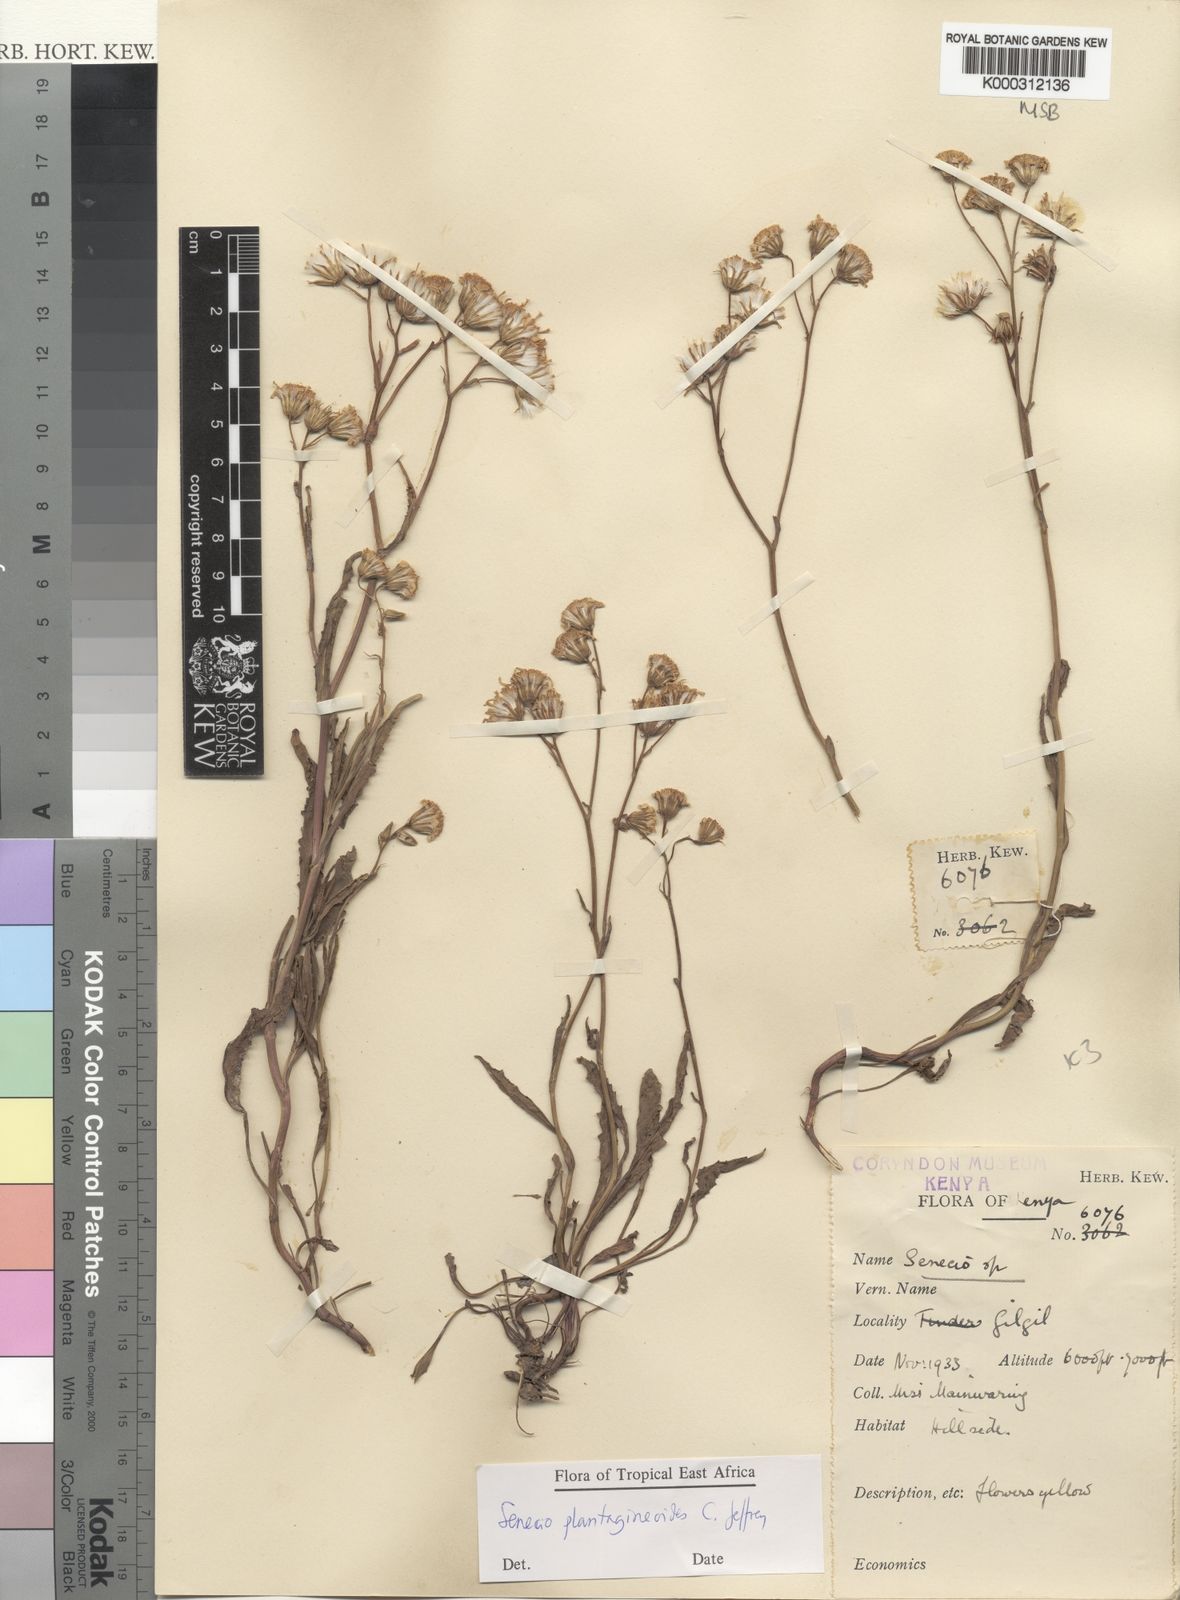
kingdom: Plantae
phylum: Tracheophyta
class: Magnoliopsida
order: Asterales
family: Asteraceae
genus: Senecio
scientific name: Senecio plantagineoides
